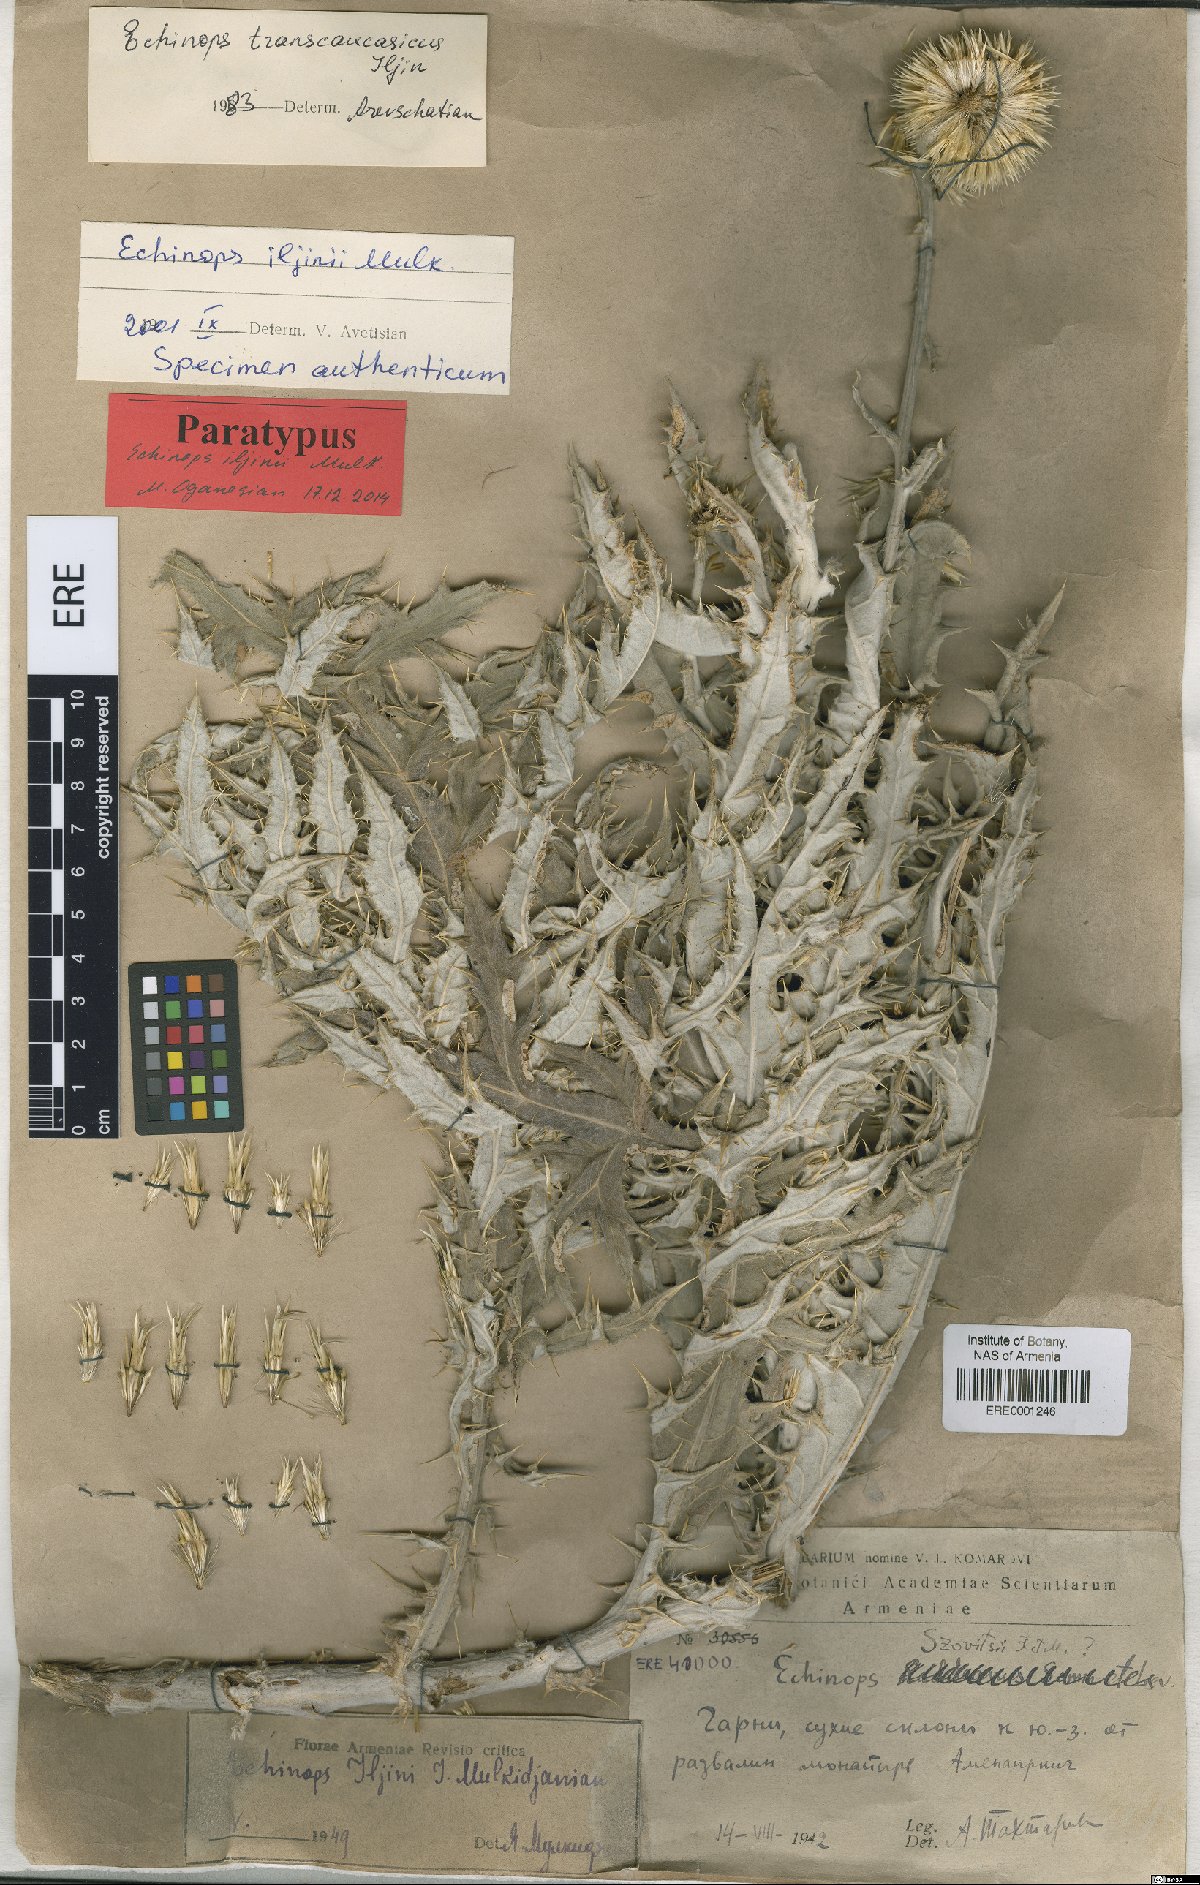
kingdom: Plantae
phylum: Tracheophyta
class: Magnoliopsida
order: Asterales
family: Asteraceae
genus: Echinops
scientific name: Echinops transcaucasicus
